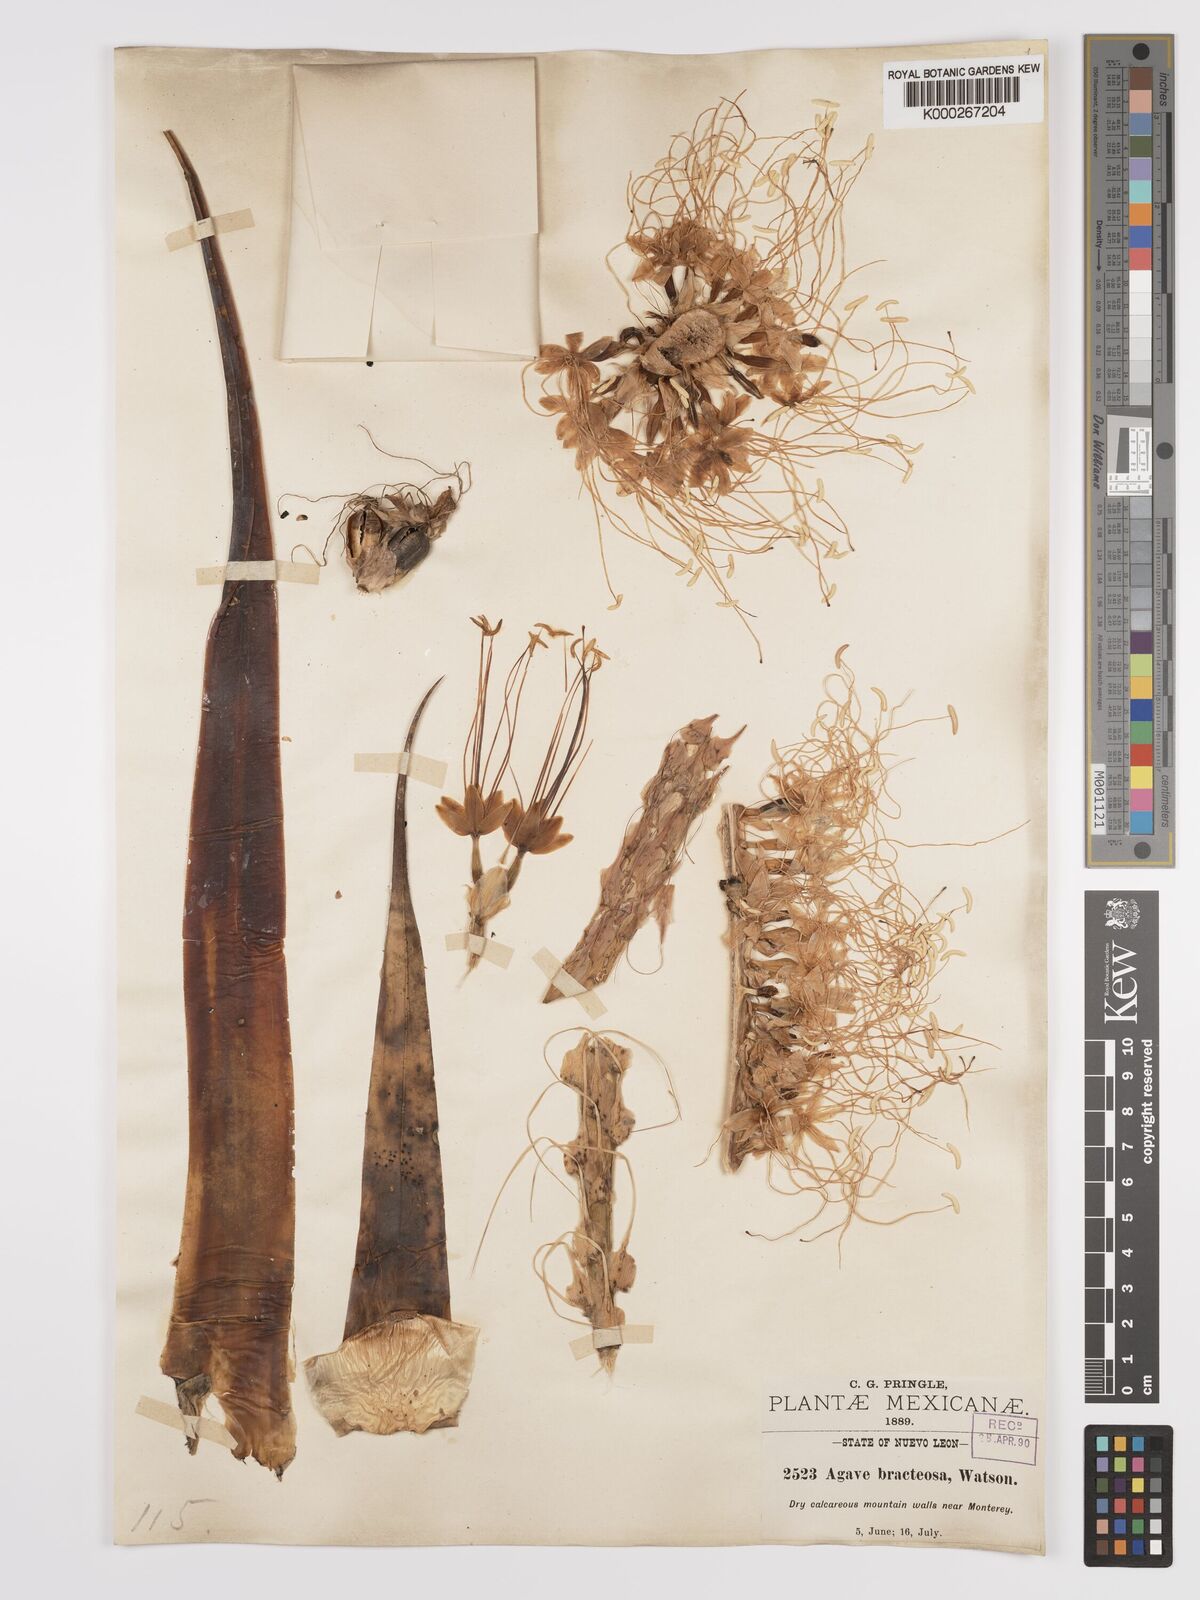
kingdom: Plantae
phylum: Tracheophyta
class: Liliopsida
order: Asparagales
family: Asparagaceae
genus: Agave
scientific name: Agave bracteosa
